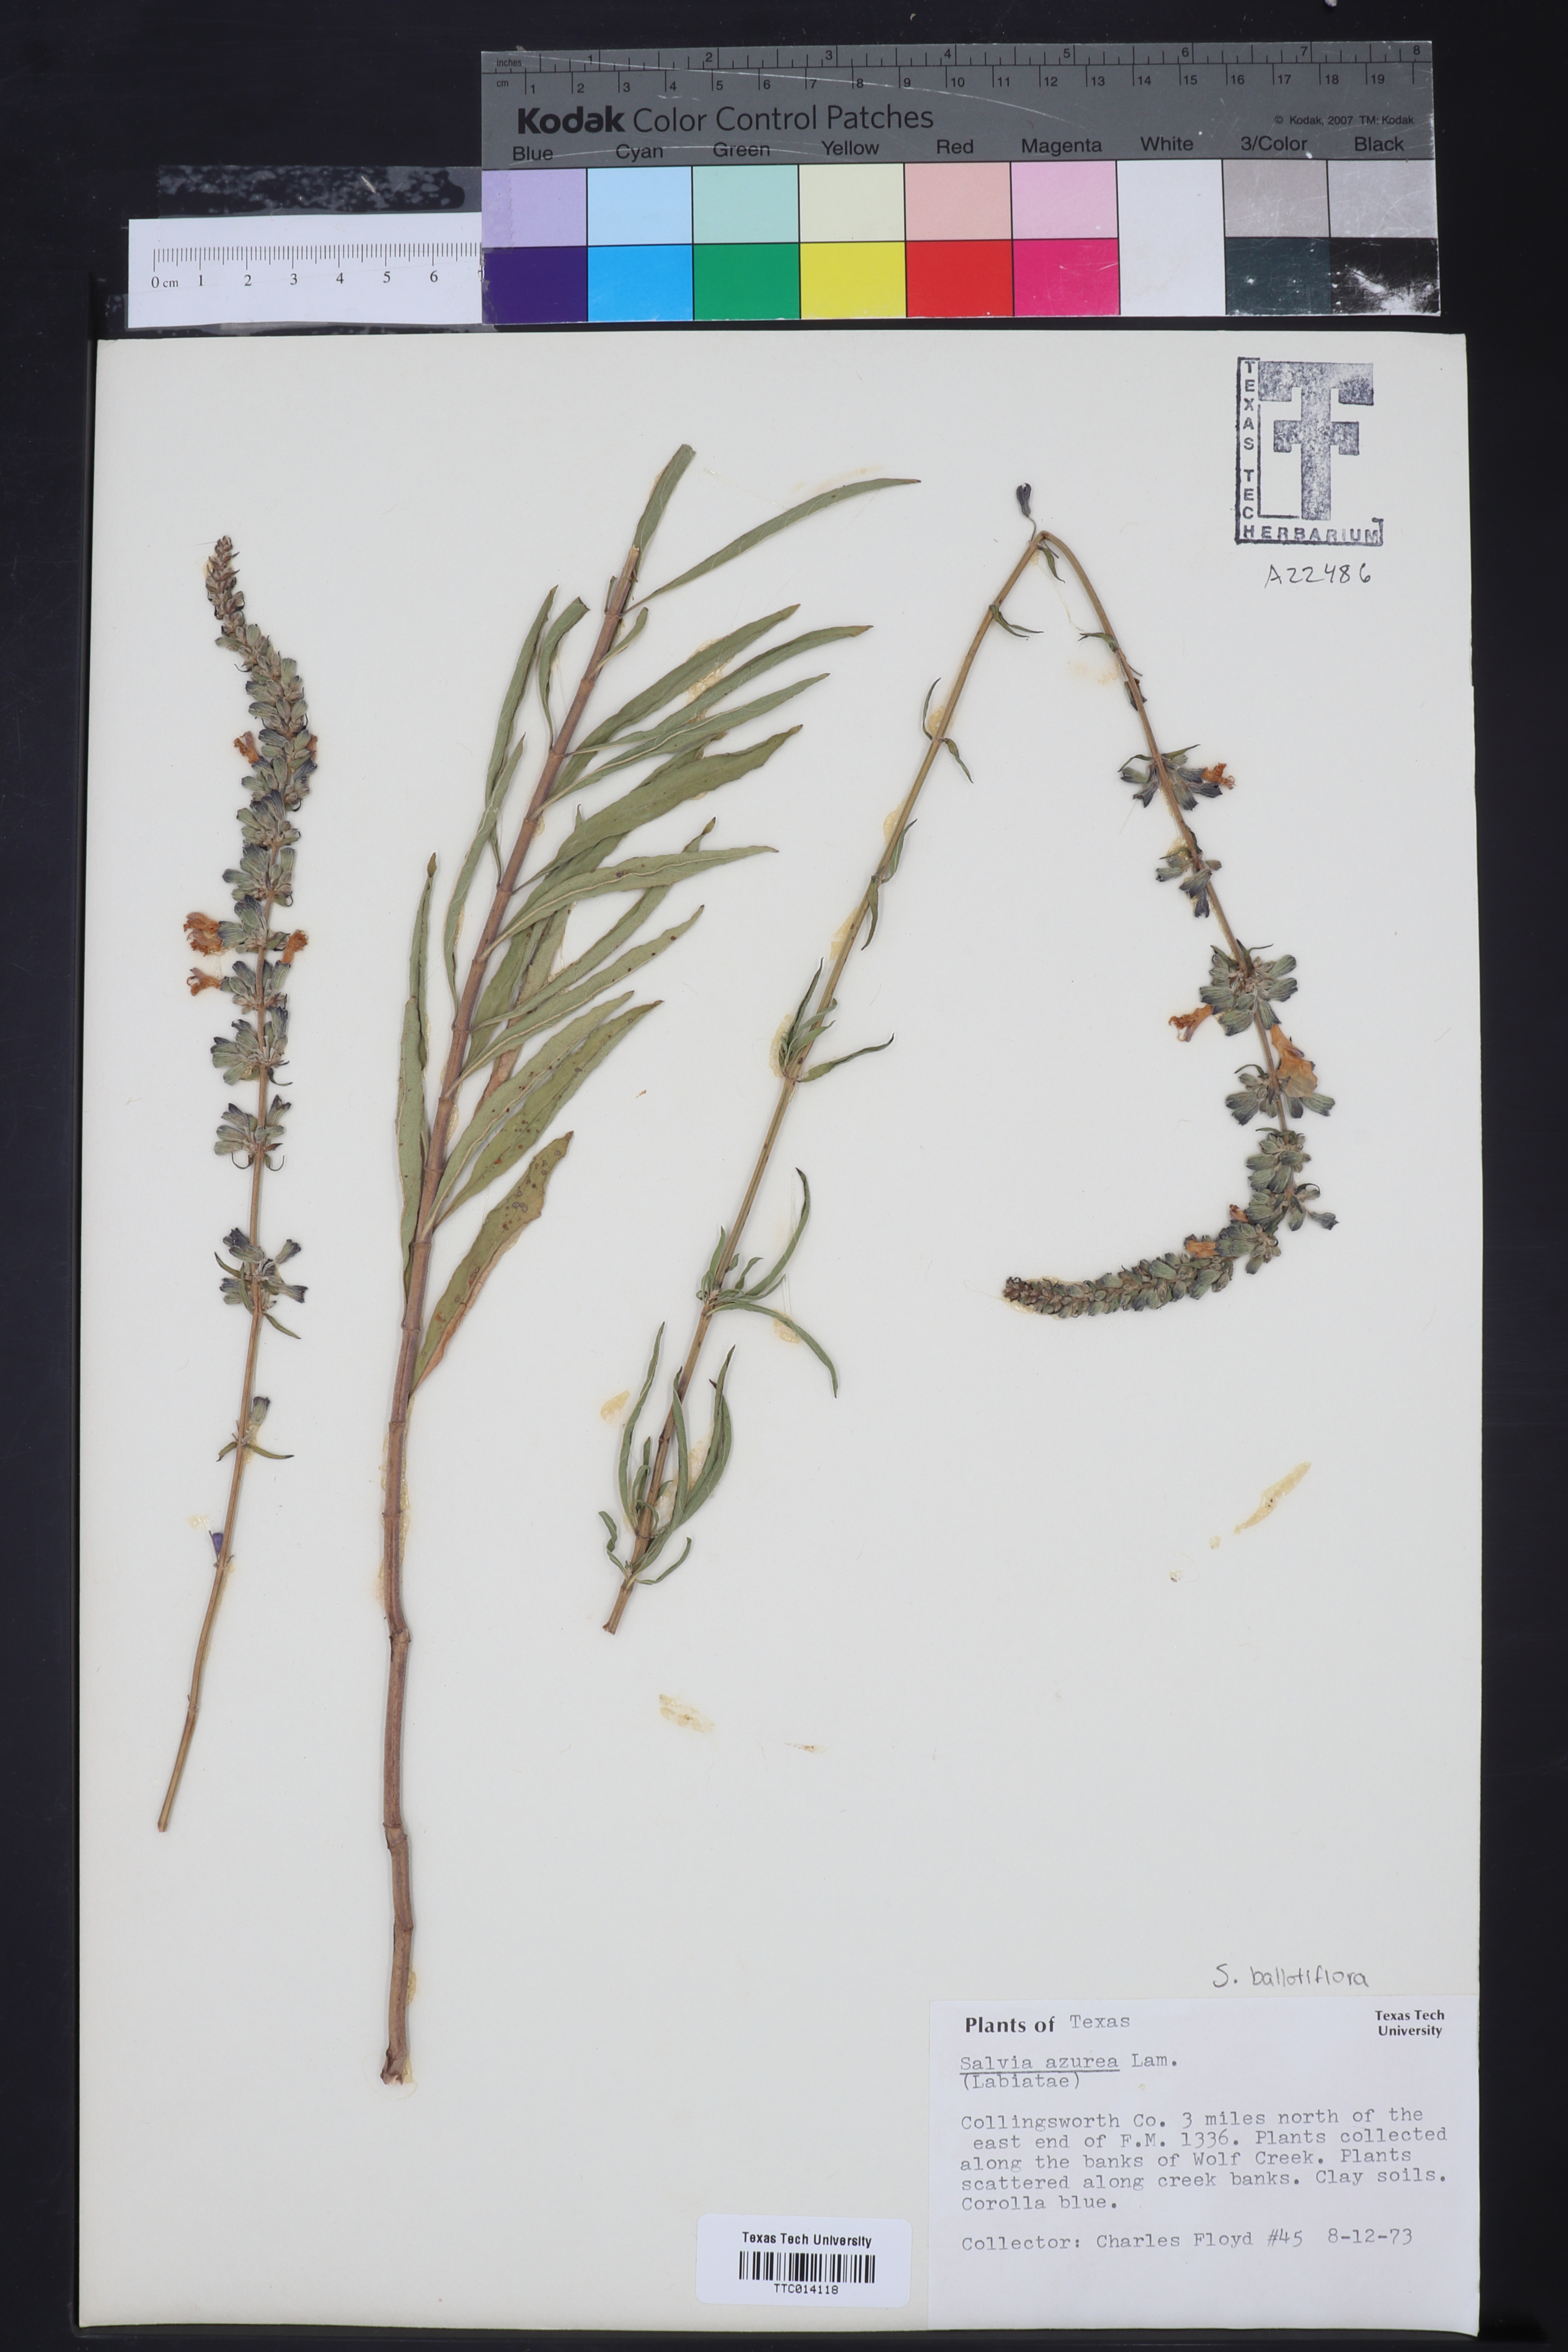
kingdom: Plantae
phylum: Tracheophyta
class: Magnoliopsida
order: Lamiales
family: Lamiaceae
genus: Salvia
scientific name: Salvia azurea
